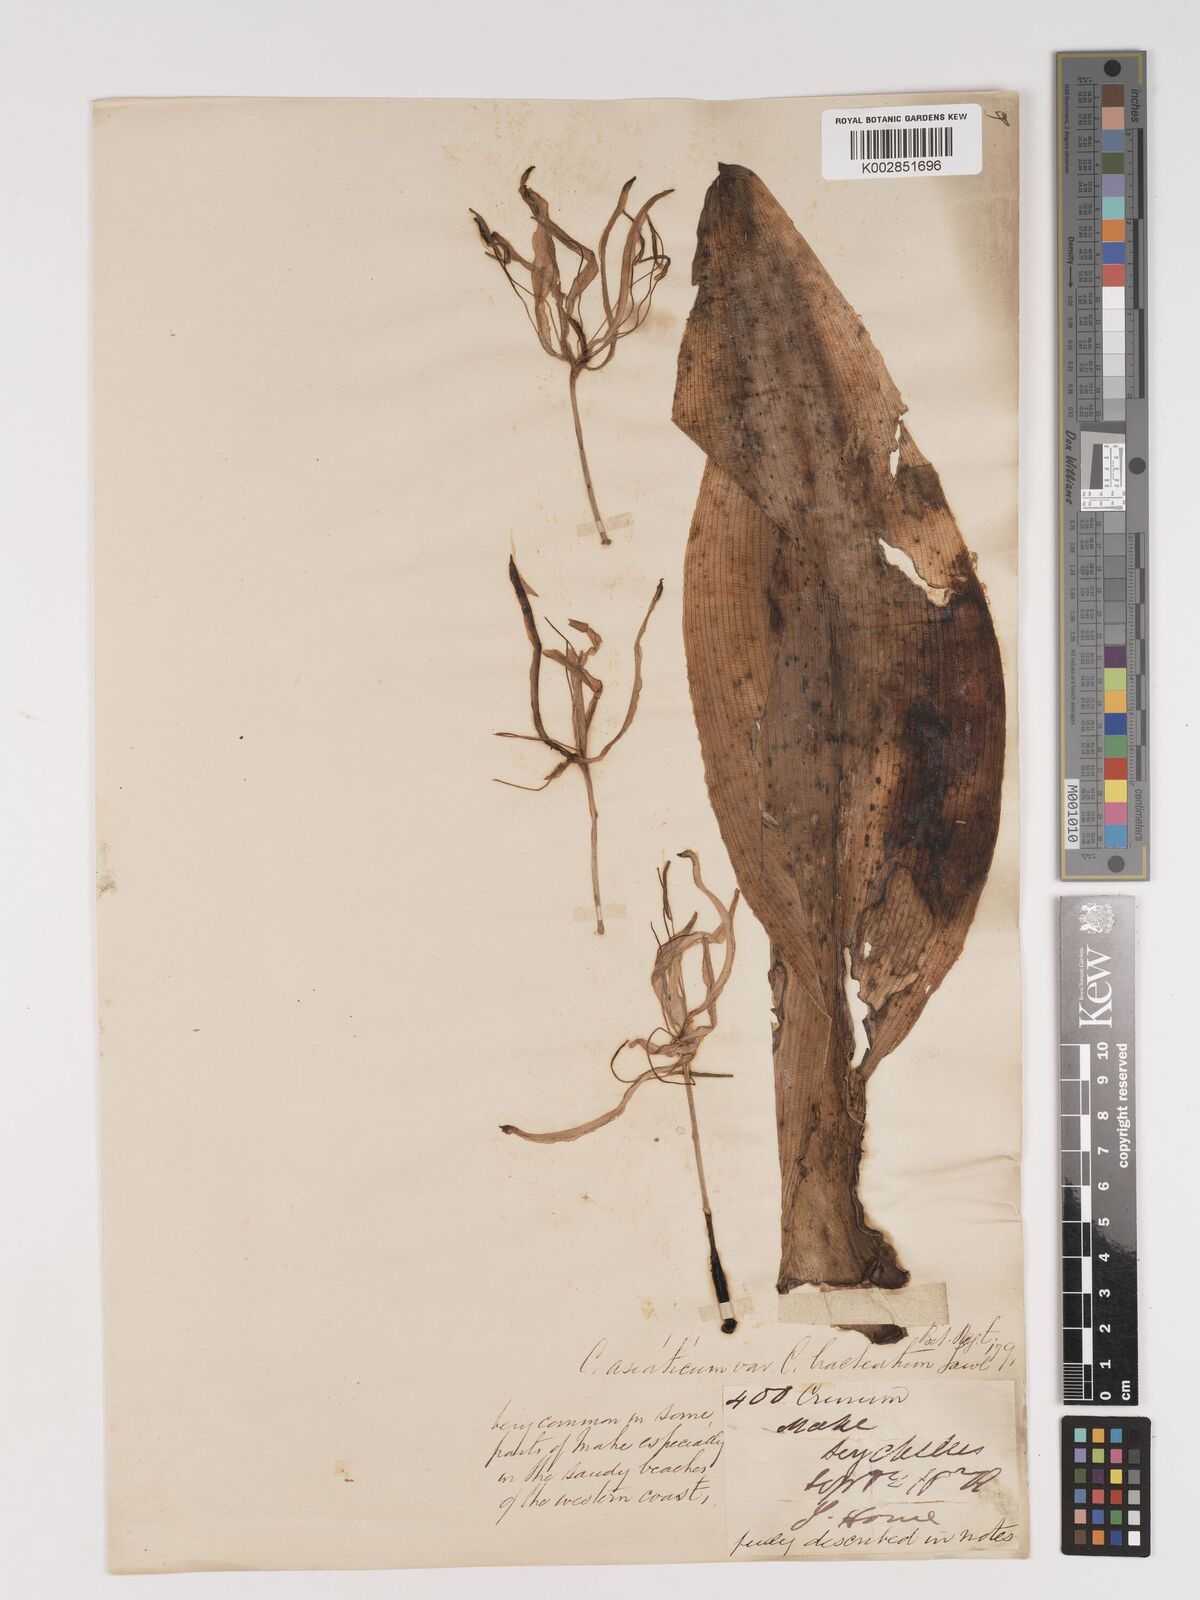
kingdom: Plantae
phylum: Tracheophyta
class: Liliopsida
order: Asparagales
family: Amaryllidaceae
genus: Crinum
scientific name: Crinum asiaticum
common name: Poisonbulb
